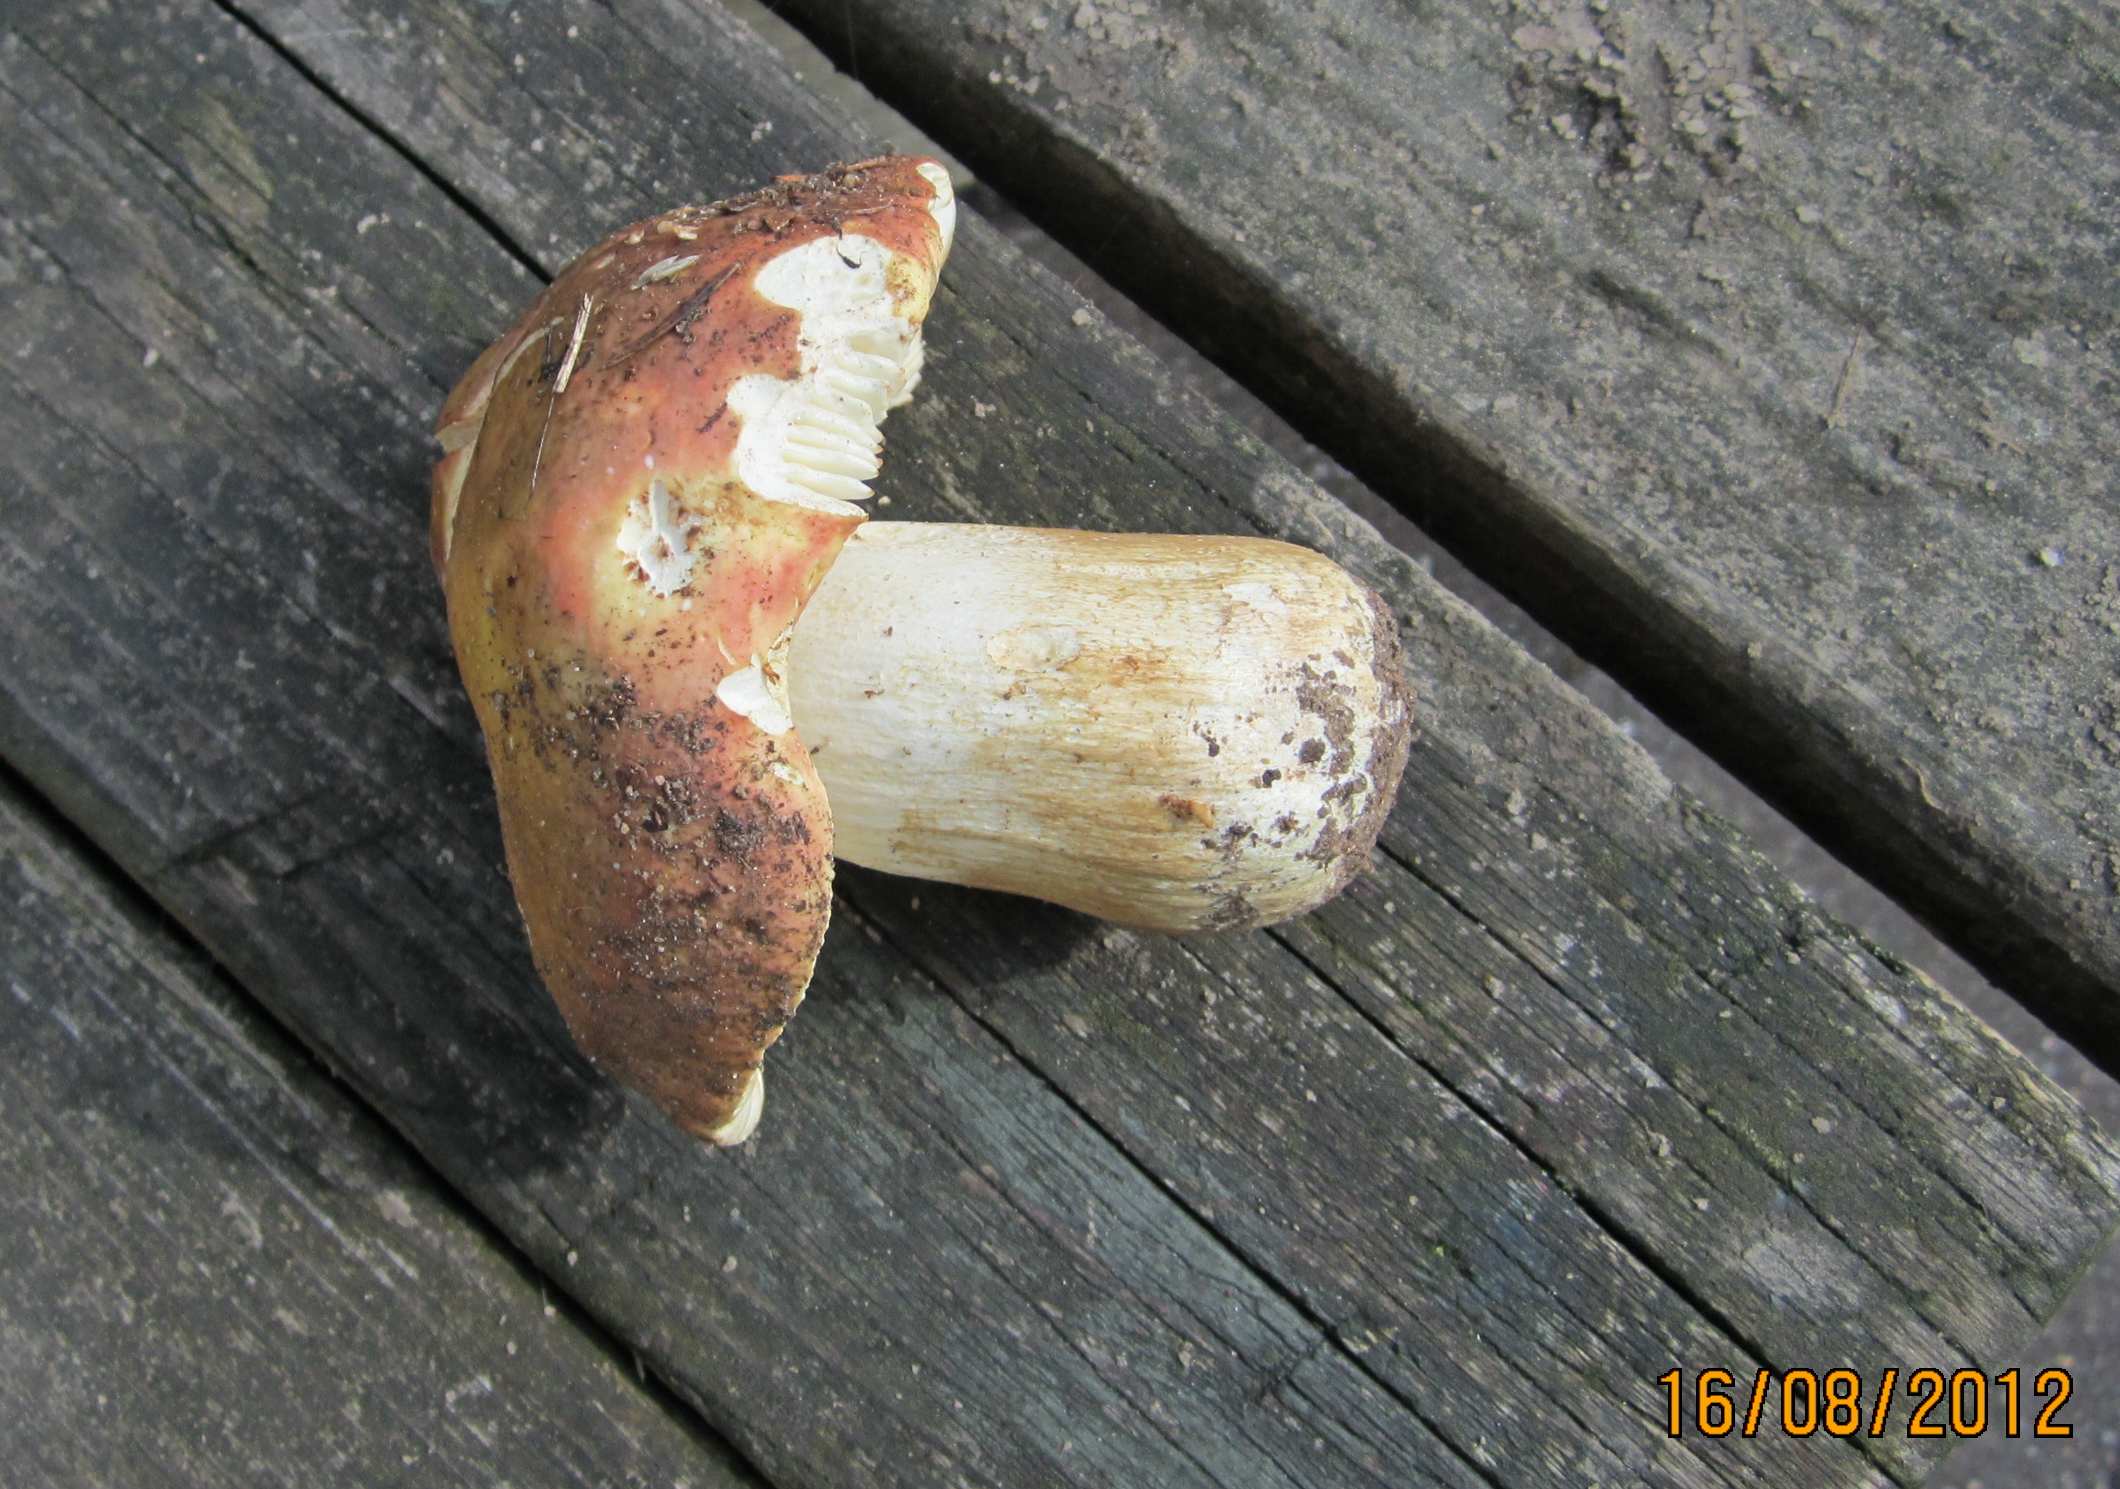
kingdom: Fungi
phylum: Basidiomycota
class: Agaricomycetes
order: Russulales
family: Russulaceae
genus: Russula
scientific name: Russula faginea
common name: bøge-skørhat
